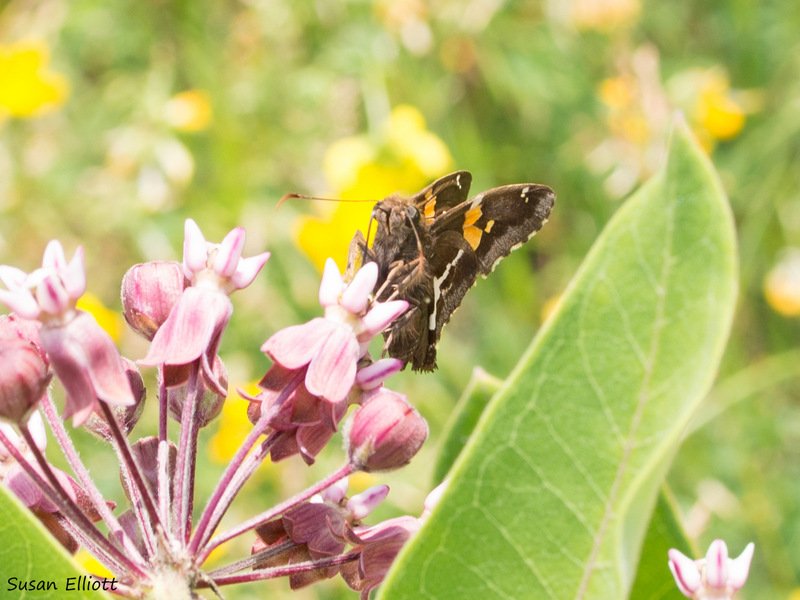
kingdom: Animalia
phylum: Arthropoda
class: Insecta
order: Lepidoptera
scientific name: Lepidoptera
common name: Butterflies
